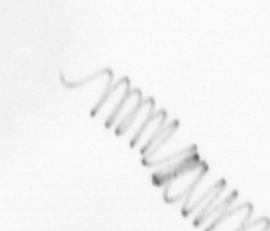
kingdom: Chromista
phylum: Ochrophyta
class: Bacillariophyceae
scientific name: Bacillariophyceae
